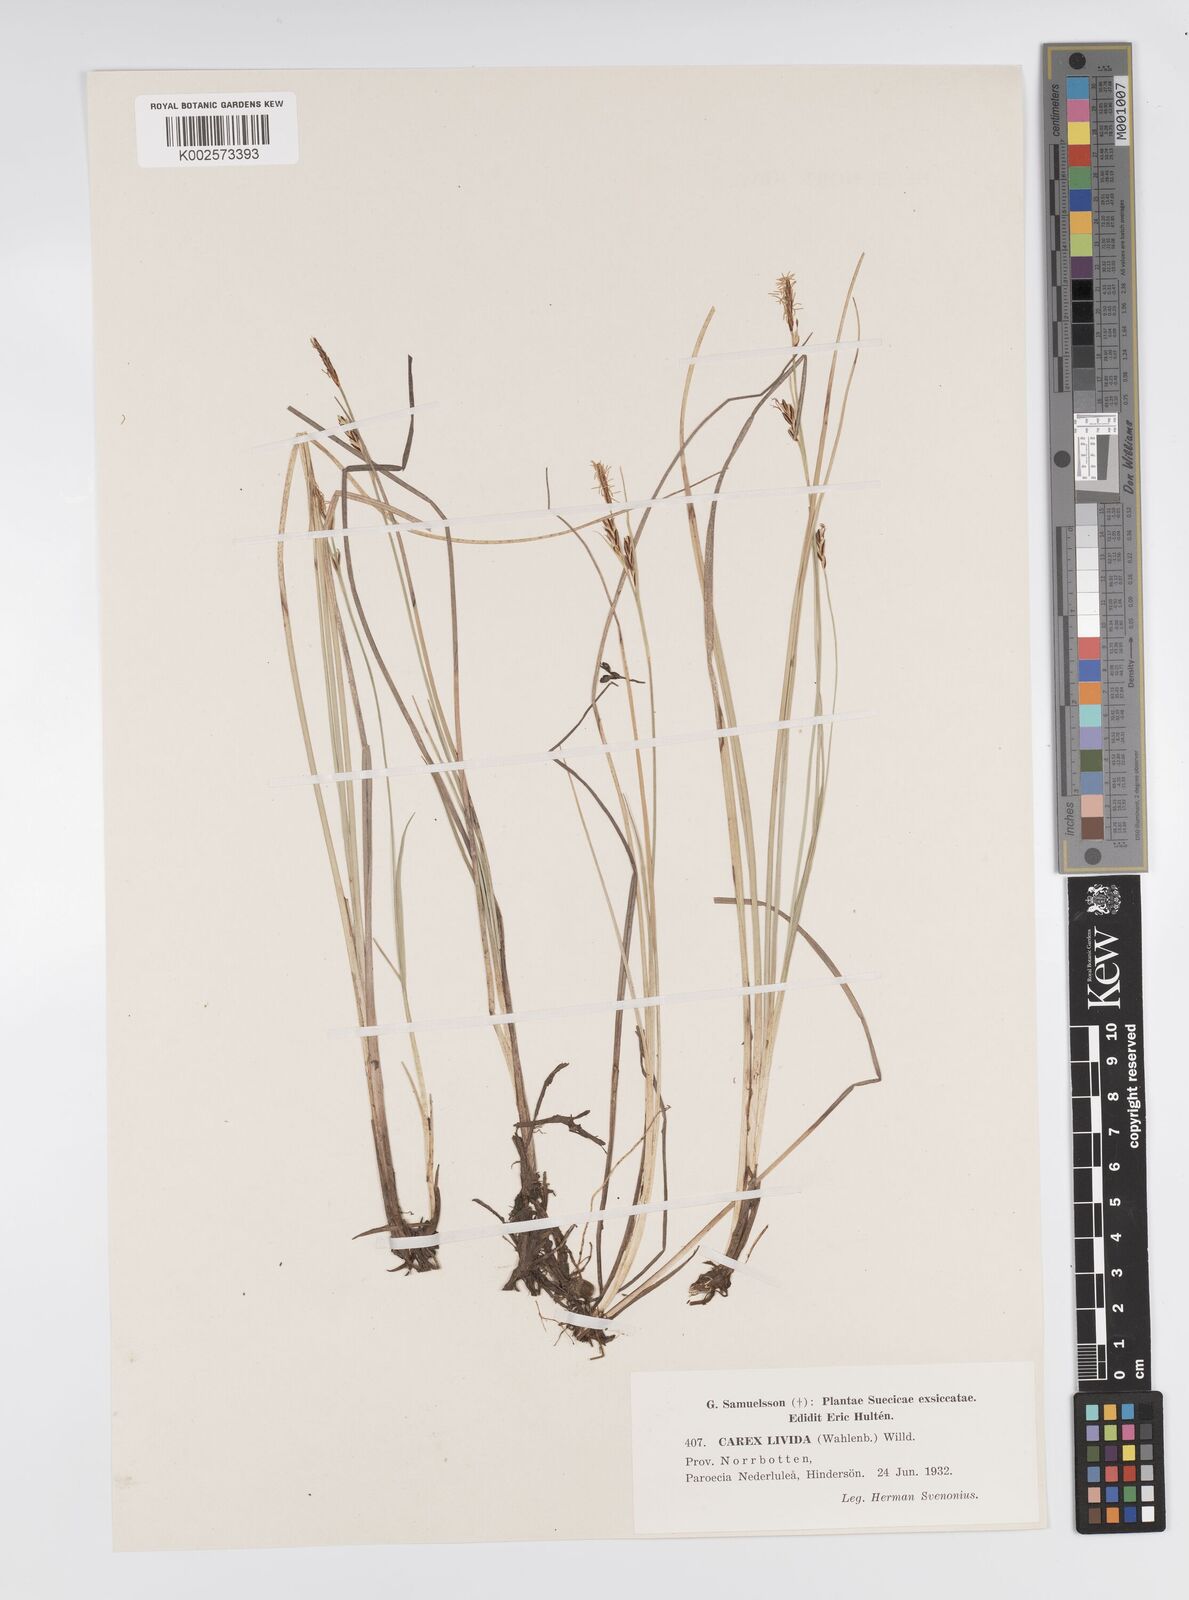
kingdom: Plantae
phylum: Tracheophyta
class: Liliopsida
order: Poales
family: Cyperaceae
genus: Carex
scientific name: Carex livida
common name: Livid sedge
